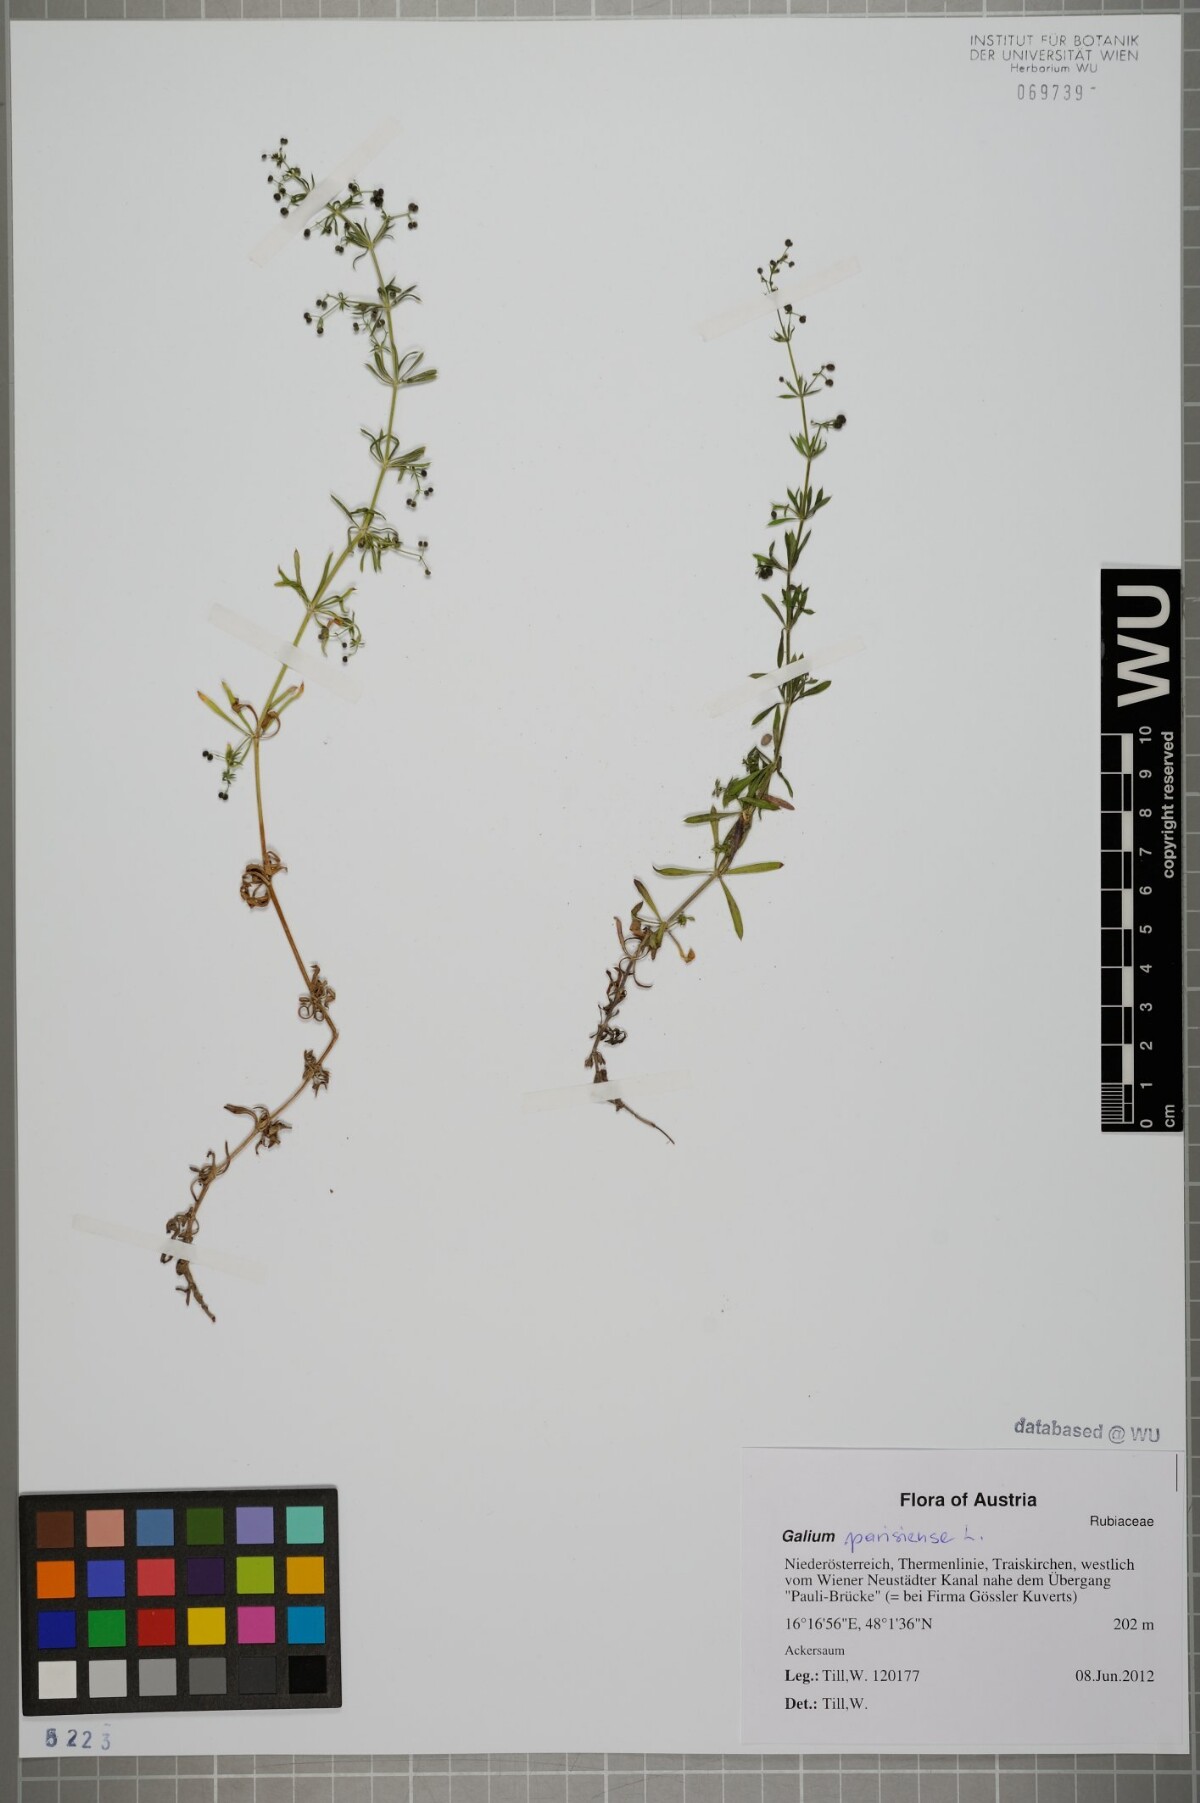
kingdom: Plantae
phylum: Tracheophyta
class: Magnoliopsida
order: Gentianales
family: Rubiaceae
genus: Galium
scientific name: Galium spurium
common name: False cleavers
